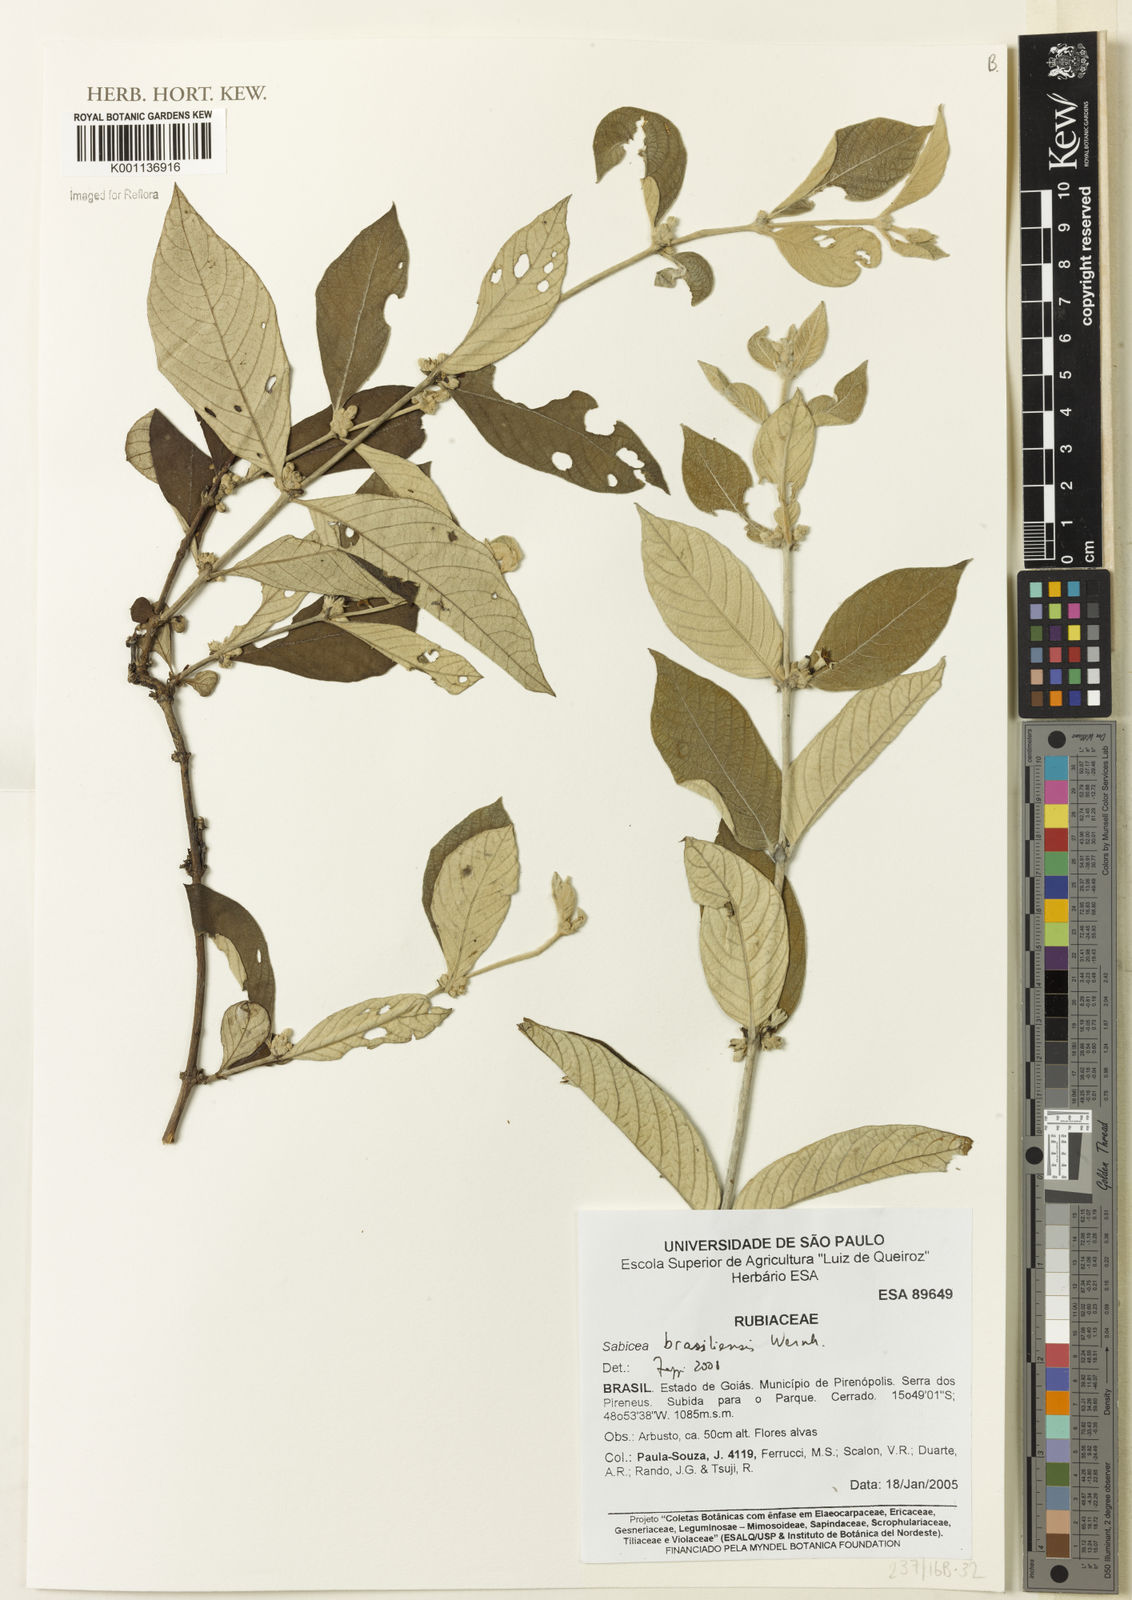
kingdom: Plantae
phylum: Tracheophyta
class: Magnoliopsida
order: Gentianales
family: Rubiaceae
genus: Sabicea
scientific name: Sabicea brasiliensis
